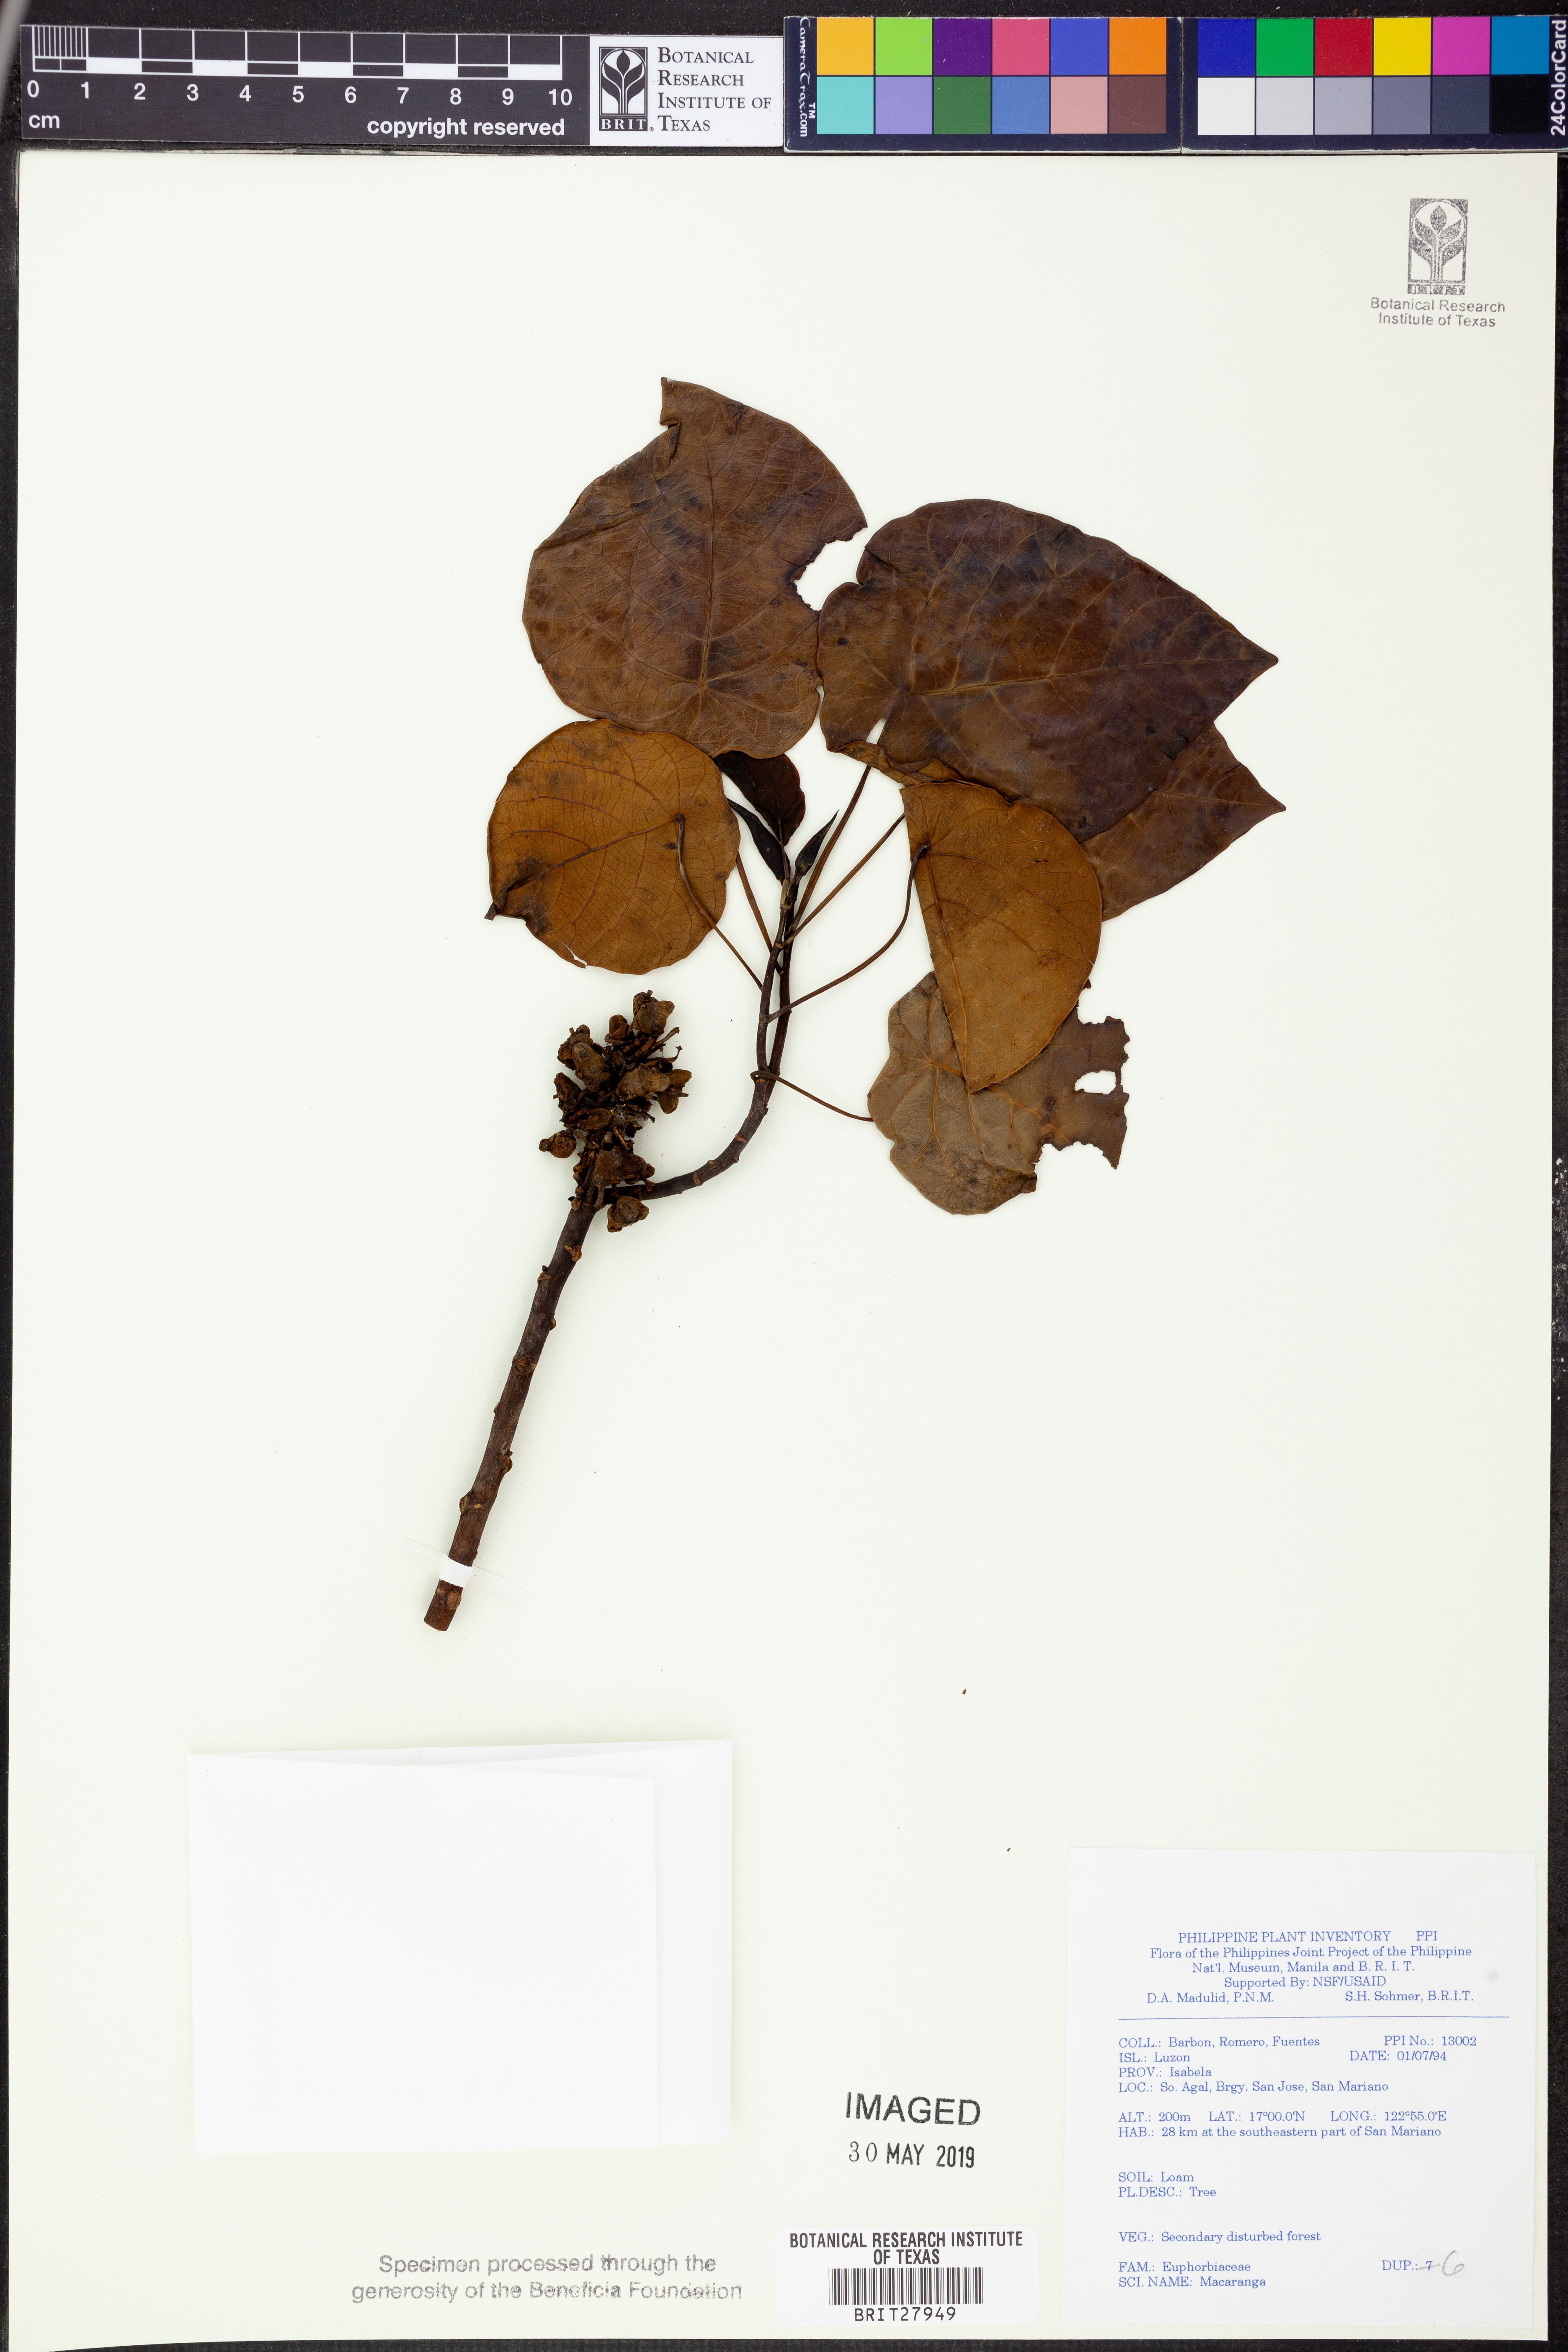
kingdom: Plantae
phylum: Tracheophyta
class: Magnoliopsida
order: Malpighiales
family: Euphorbiaceae
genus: Macaranga
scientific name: Macaranga
